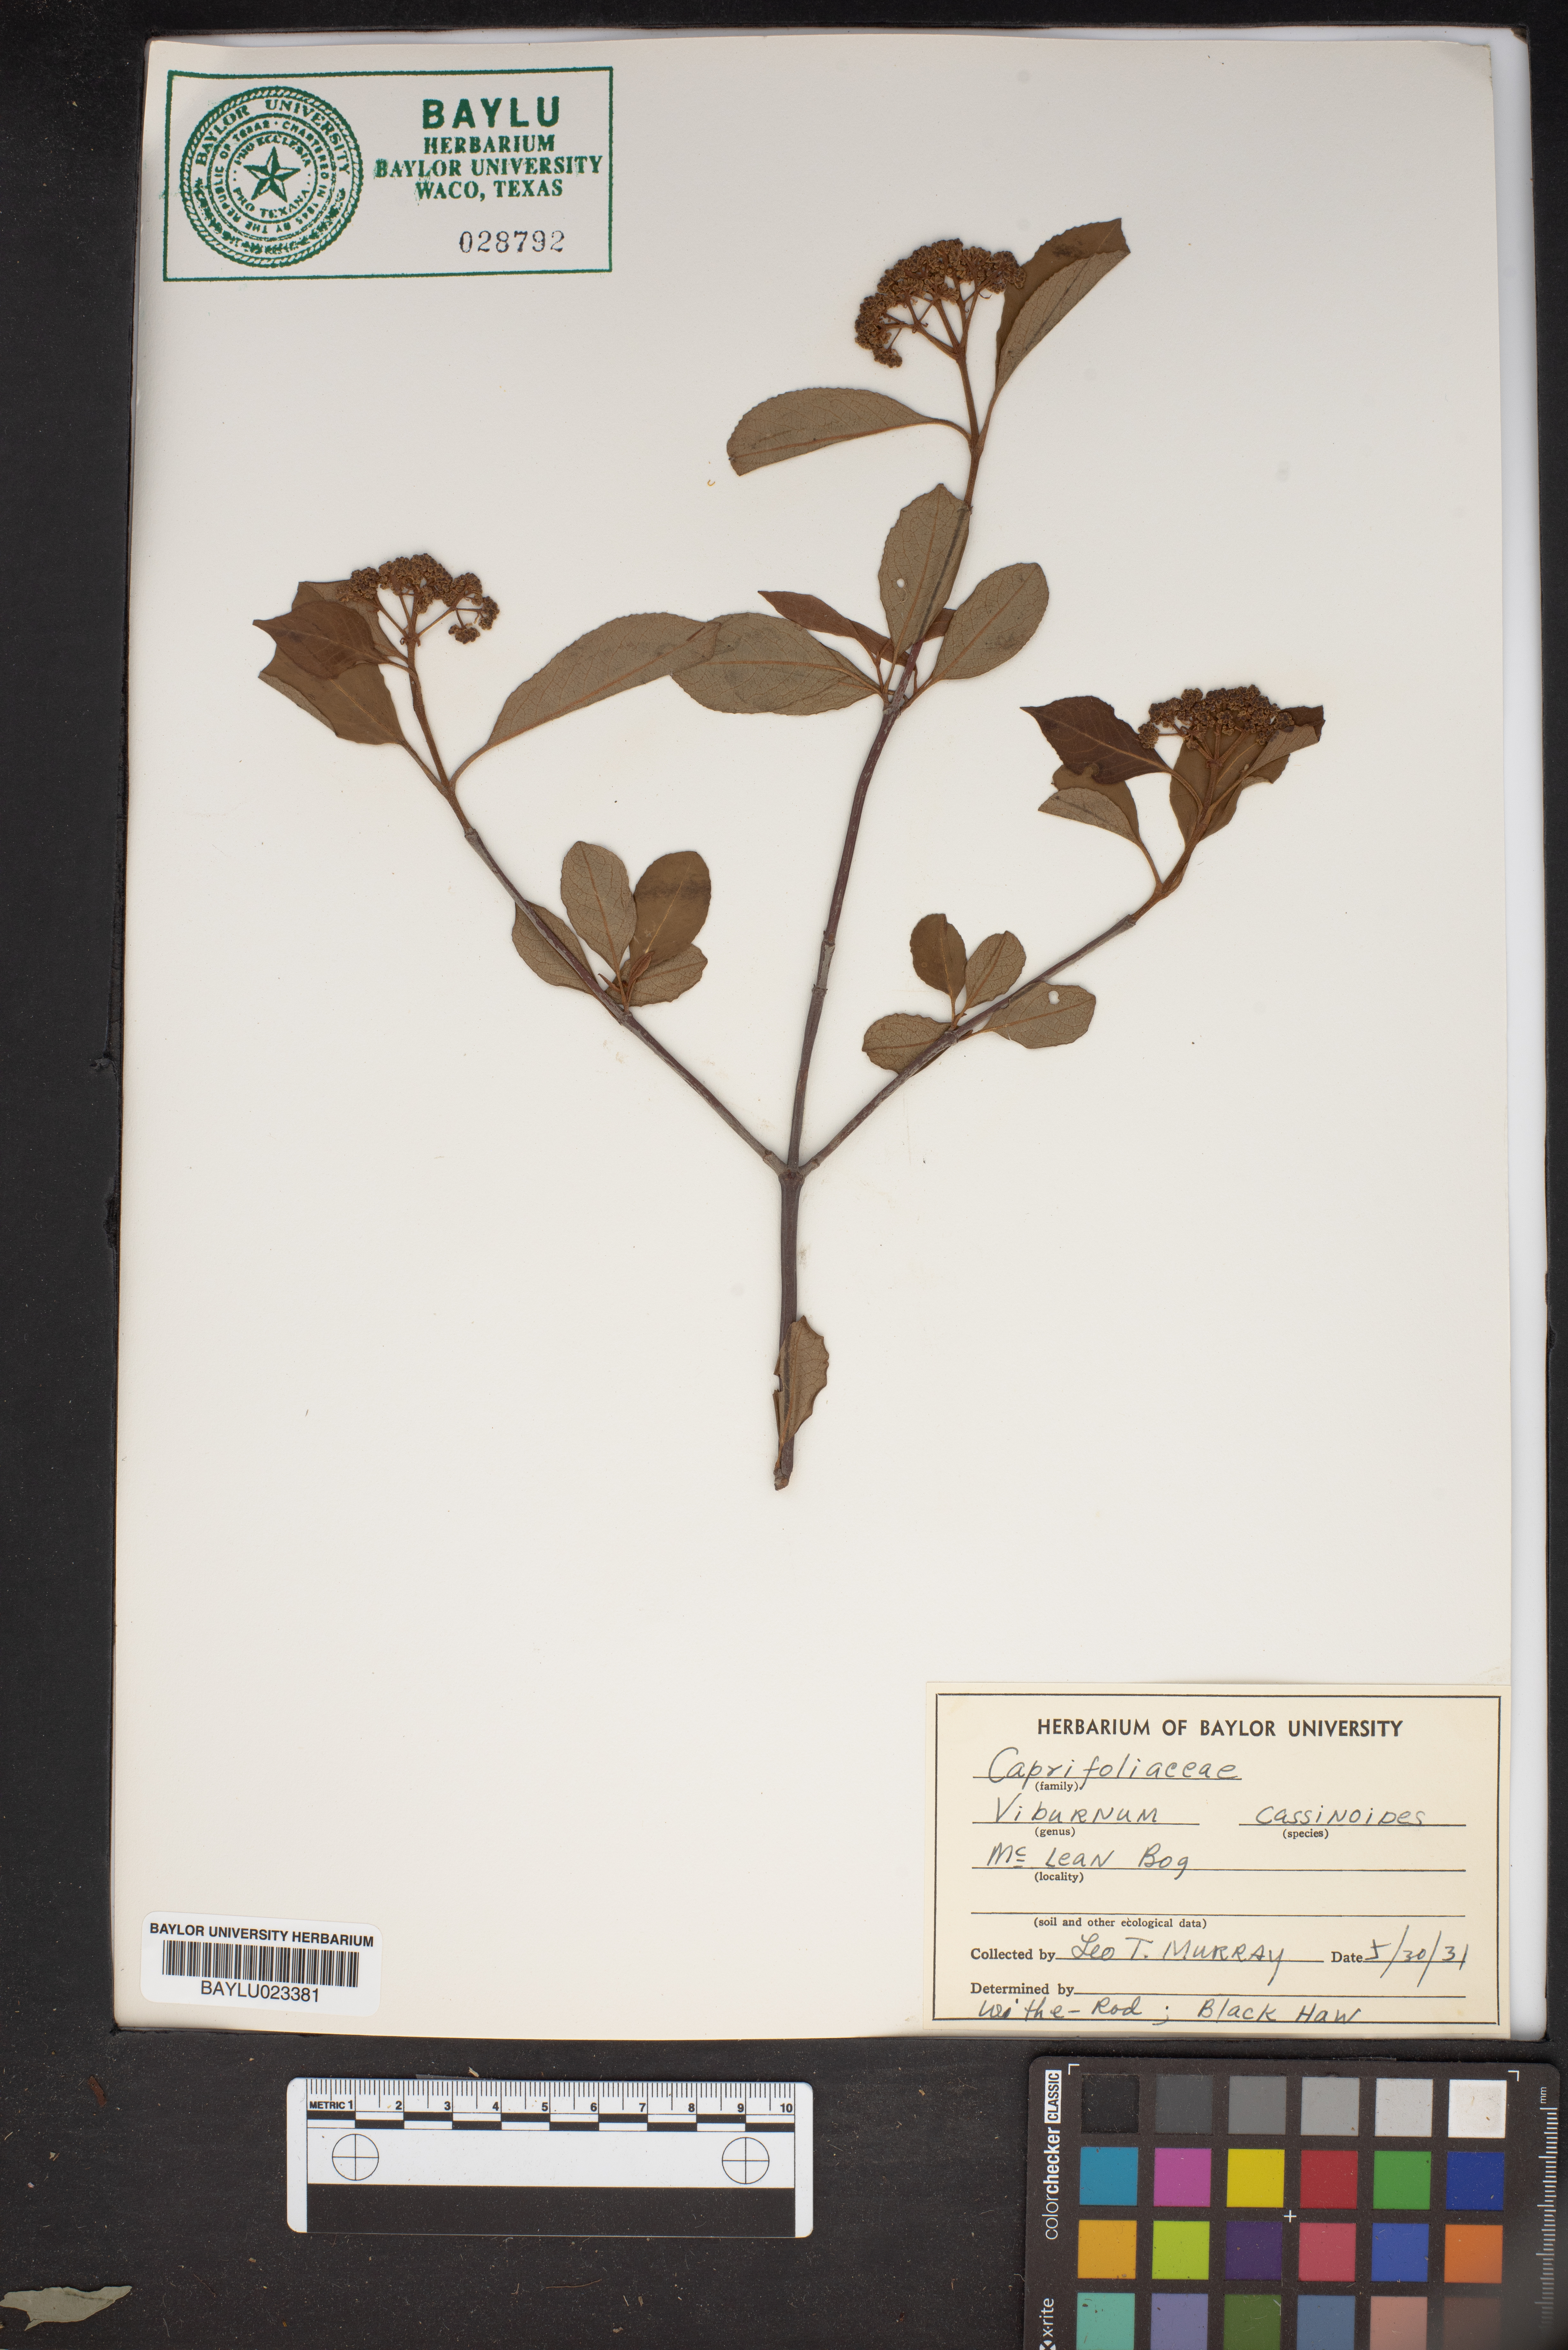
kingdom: Plantae
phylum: Tracheophyta
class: Magnoliopsida
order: Dipsacales
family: Viburnaceae
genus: Viburnum
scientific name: Viburnum cassinoides
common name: Swamp haw
